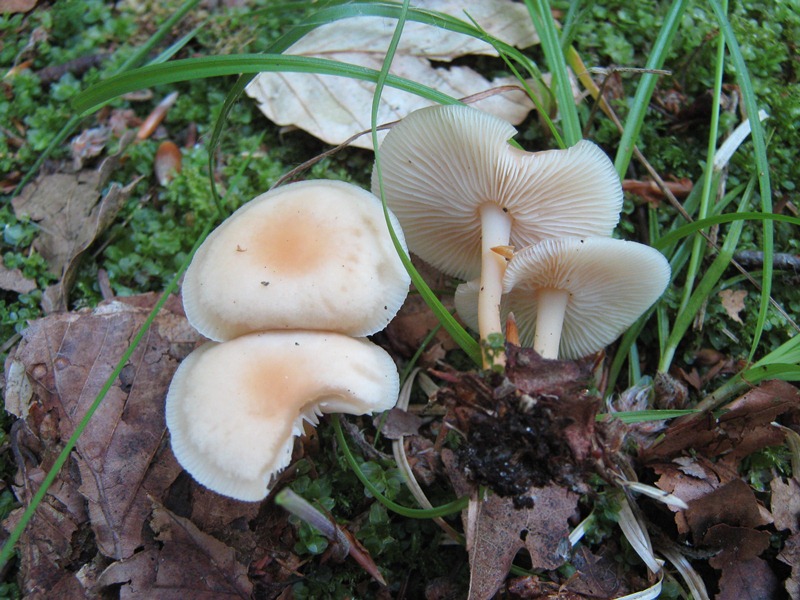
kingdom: Fungi
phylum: Basidiomycota
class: Agaricomycetes
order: Agaricales
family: Omphalotaceae
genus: Gymnopus
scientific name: Gymnopus aquosus
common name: bleg fladhat
